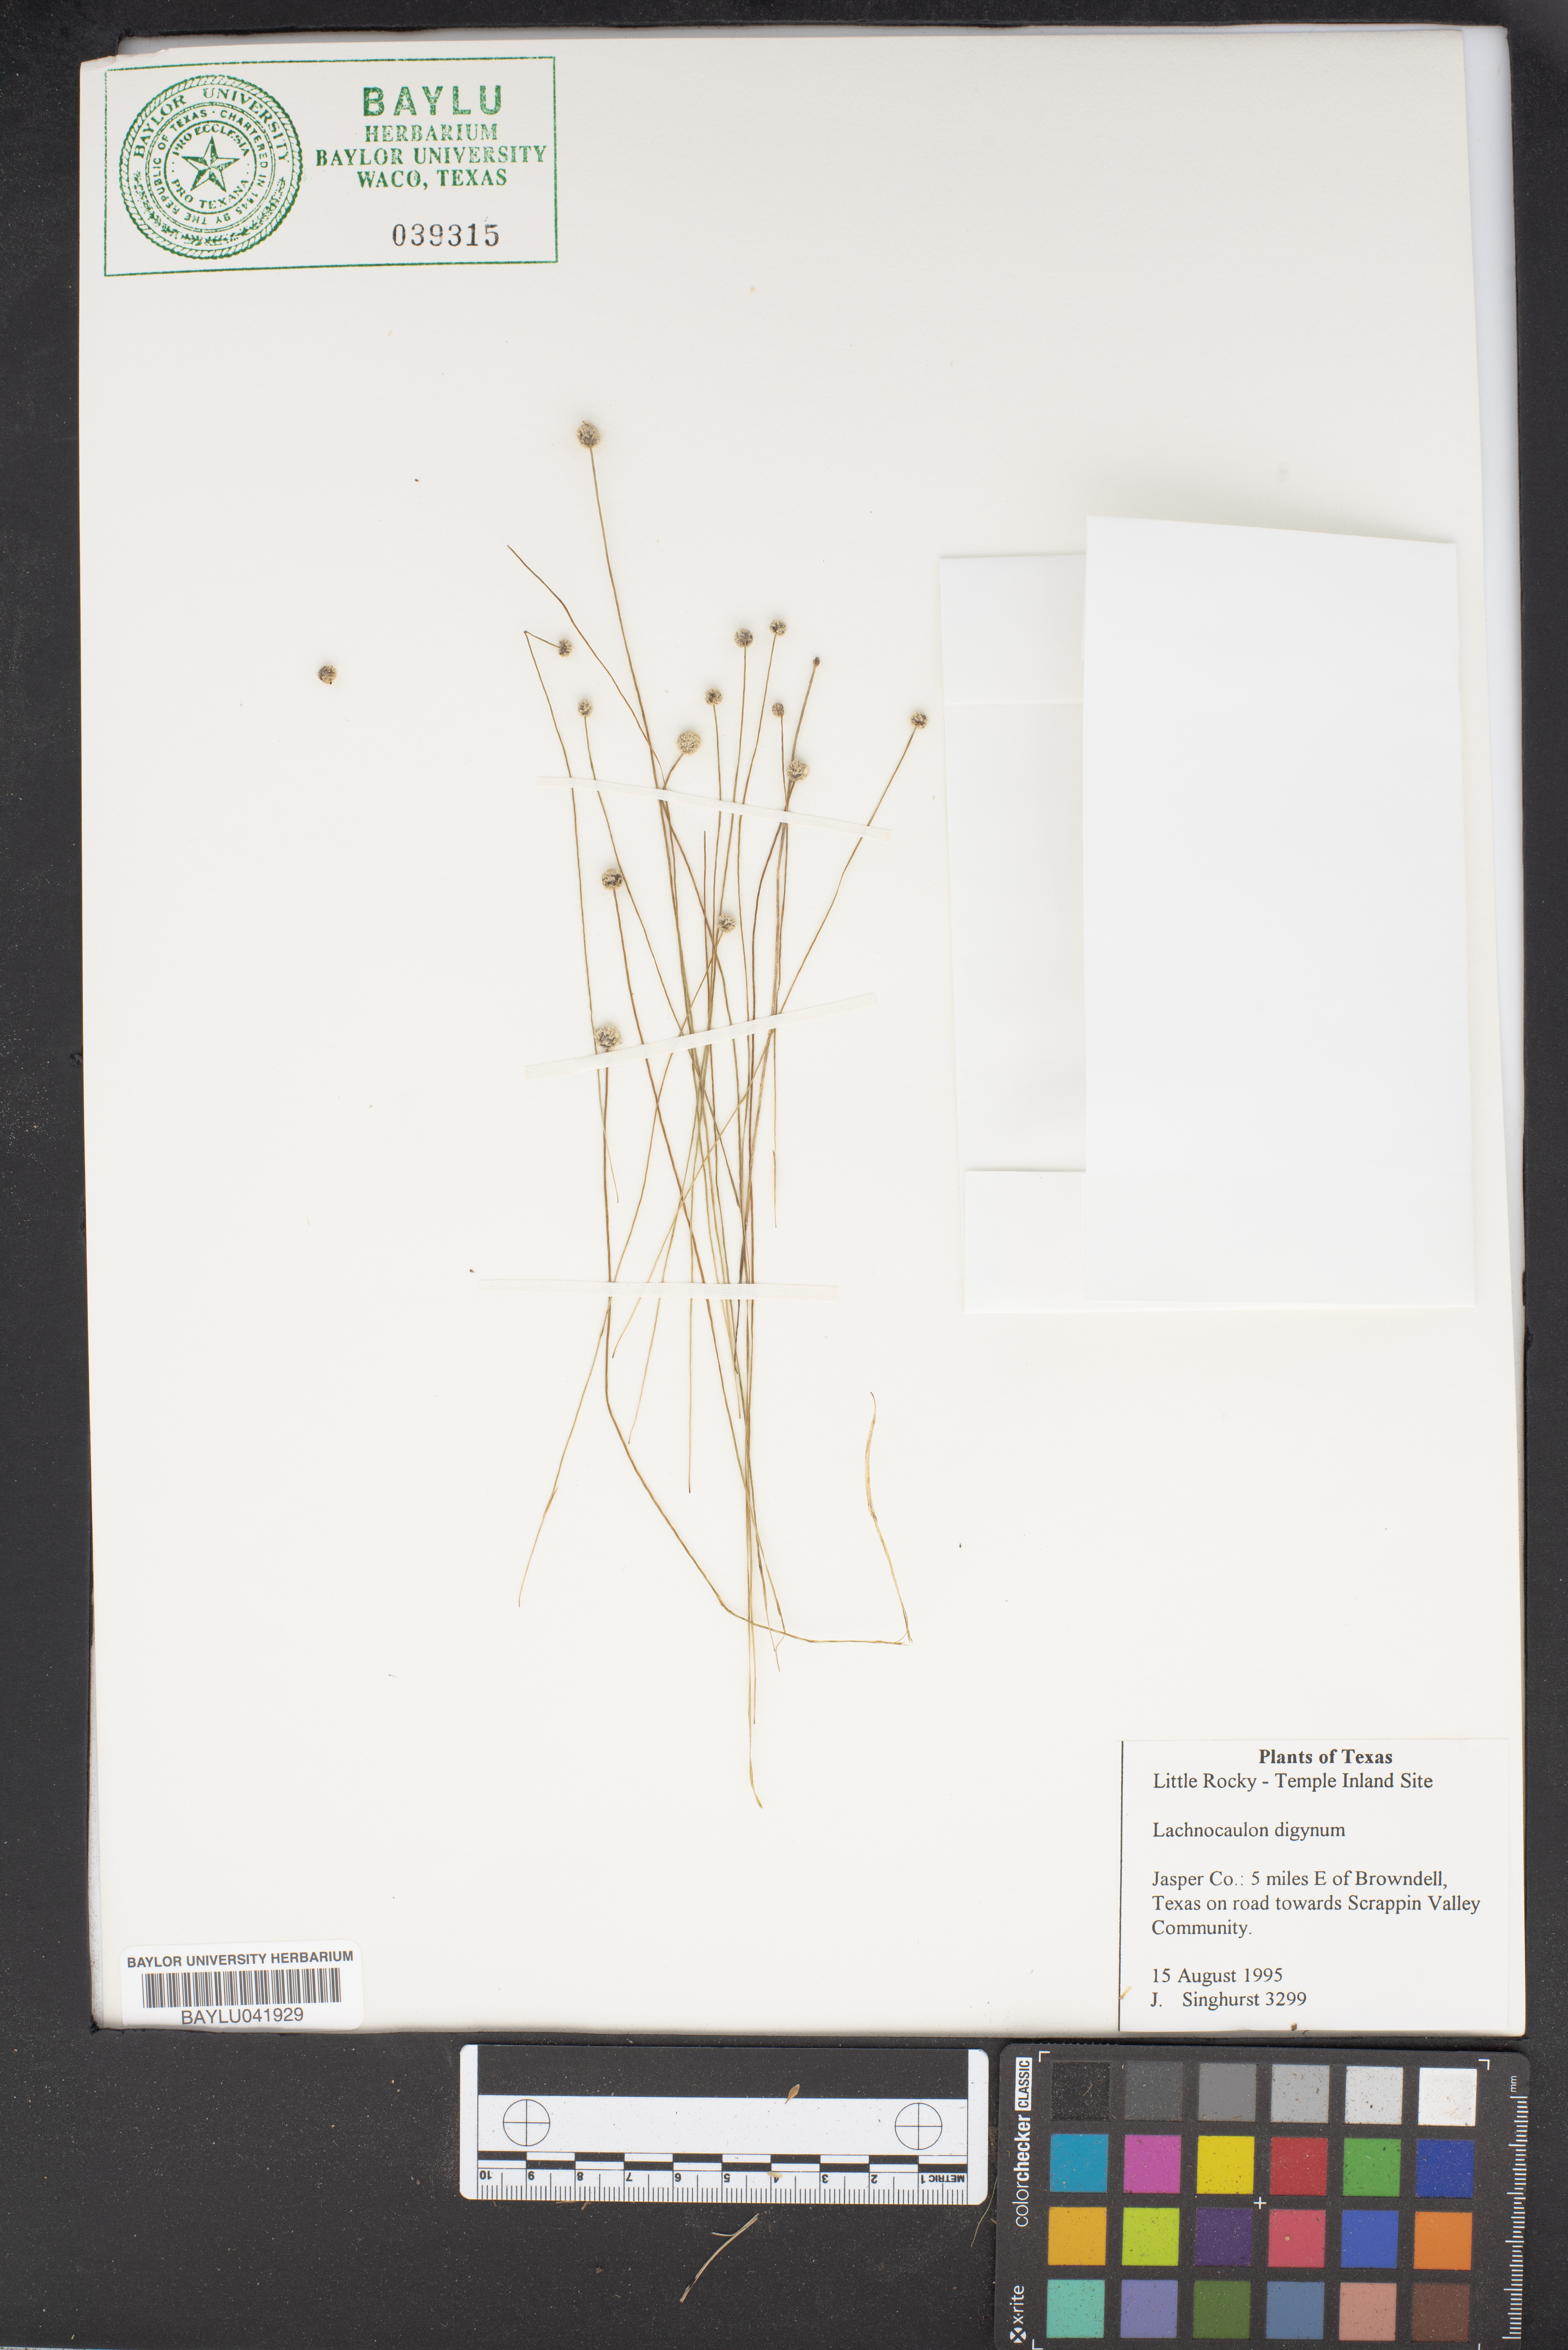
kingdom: Plantae
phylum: Tracheophyta
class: Liliopsida
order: Poales
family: Eriocaulaceae
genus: Paepalanthus
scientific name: Paepalanthus digynus
